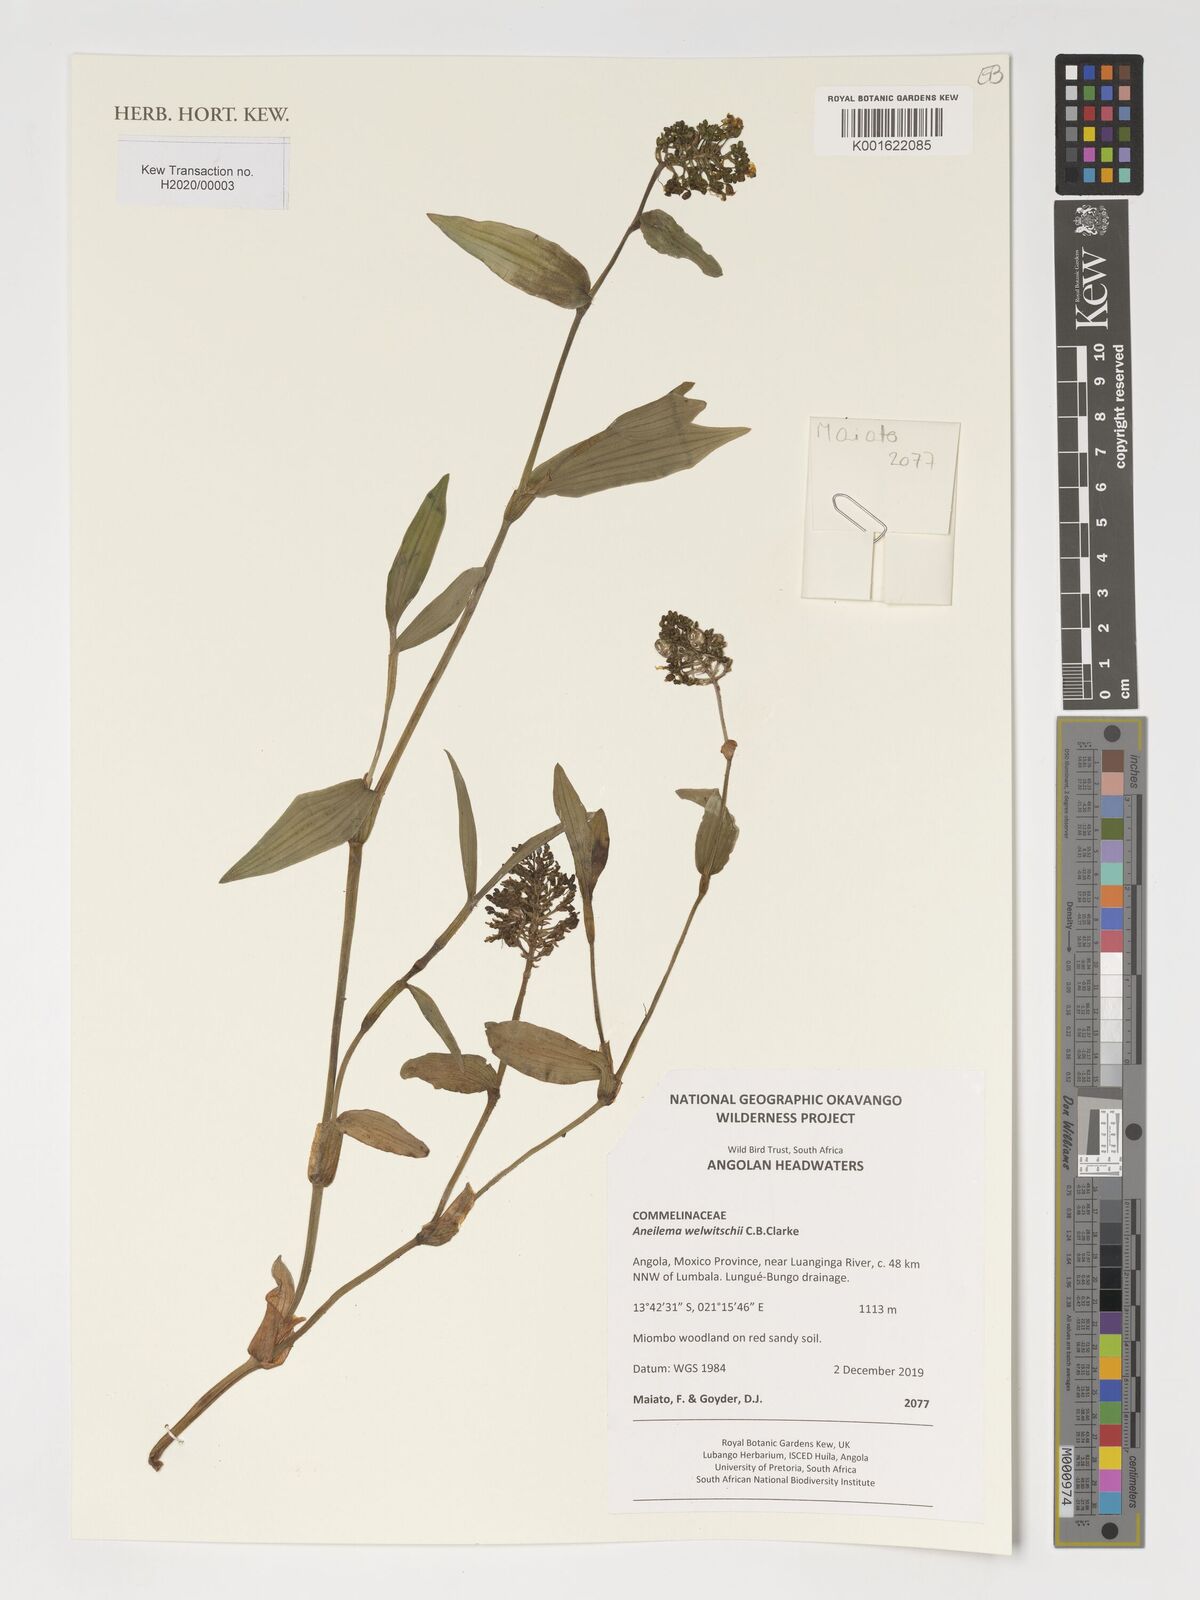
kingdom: Plantae
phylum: Tracheophyta
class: Liliopsida
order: Commelinales
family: Commelinaceae
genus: Aneilema
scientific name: Aneilema welwitschii
